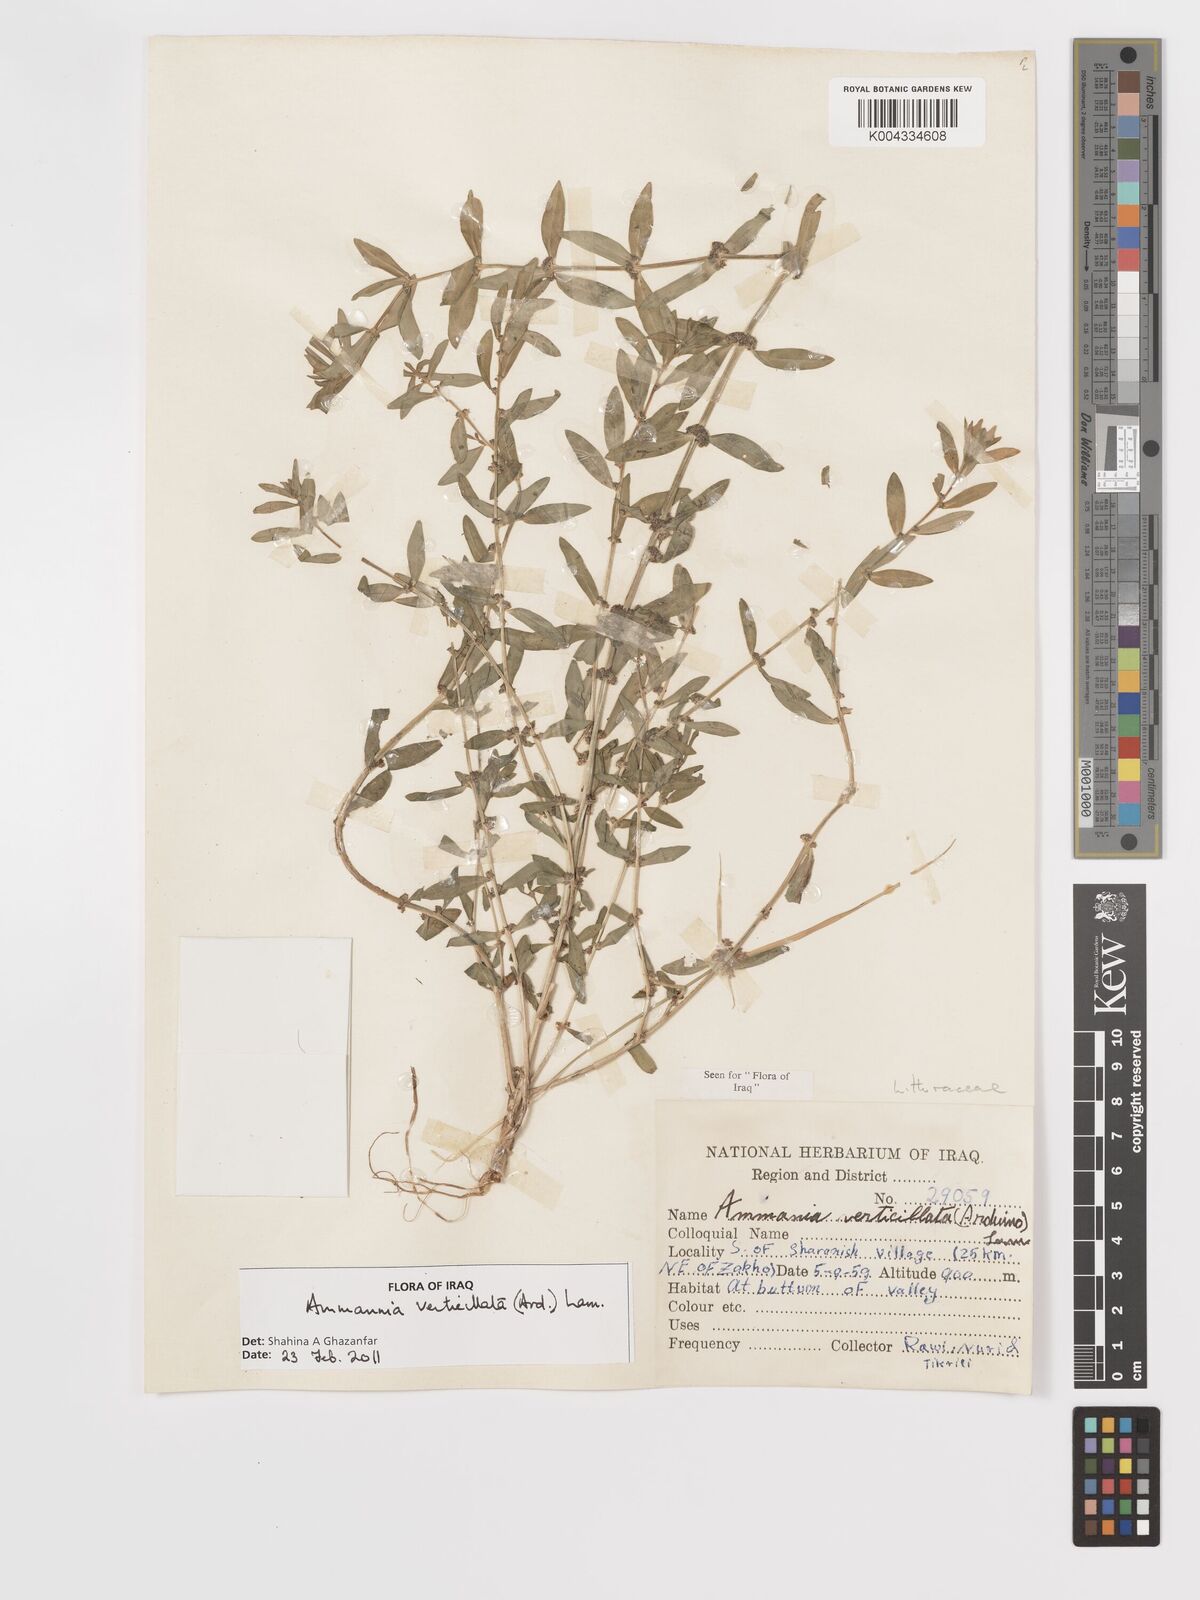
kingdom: Plantae
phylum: Tracheophyta
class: Magnoliopsida
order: Myrtales
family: Lythraceae
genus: Ammannia
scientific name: Ammannia baccifera
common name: Blistering ammania
